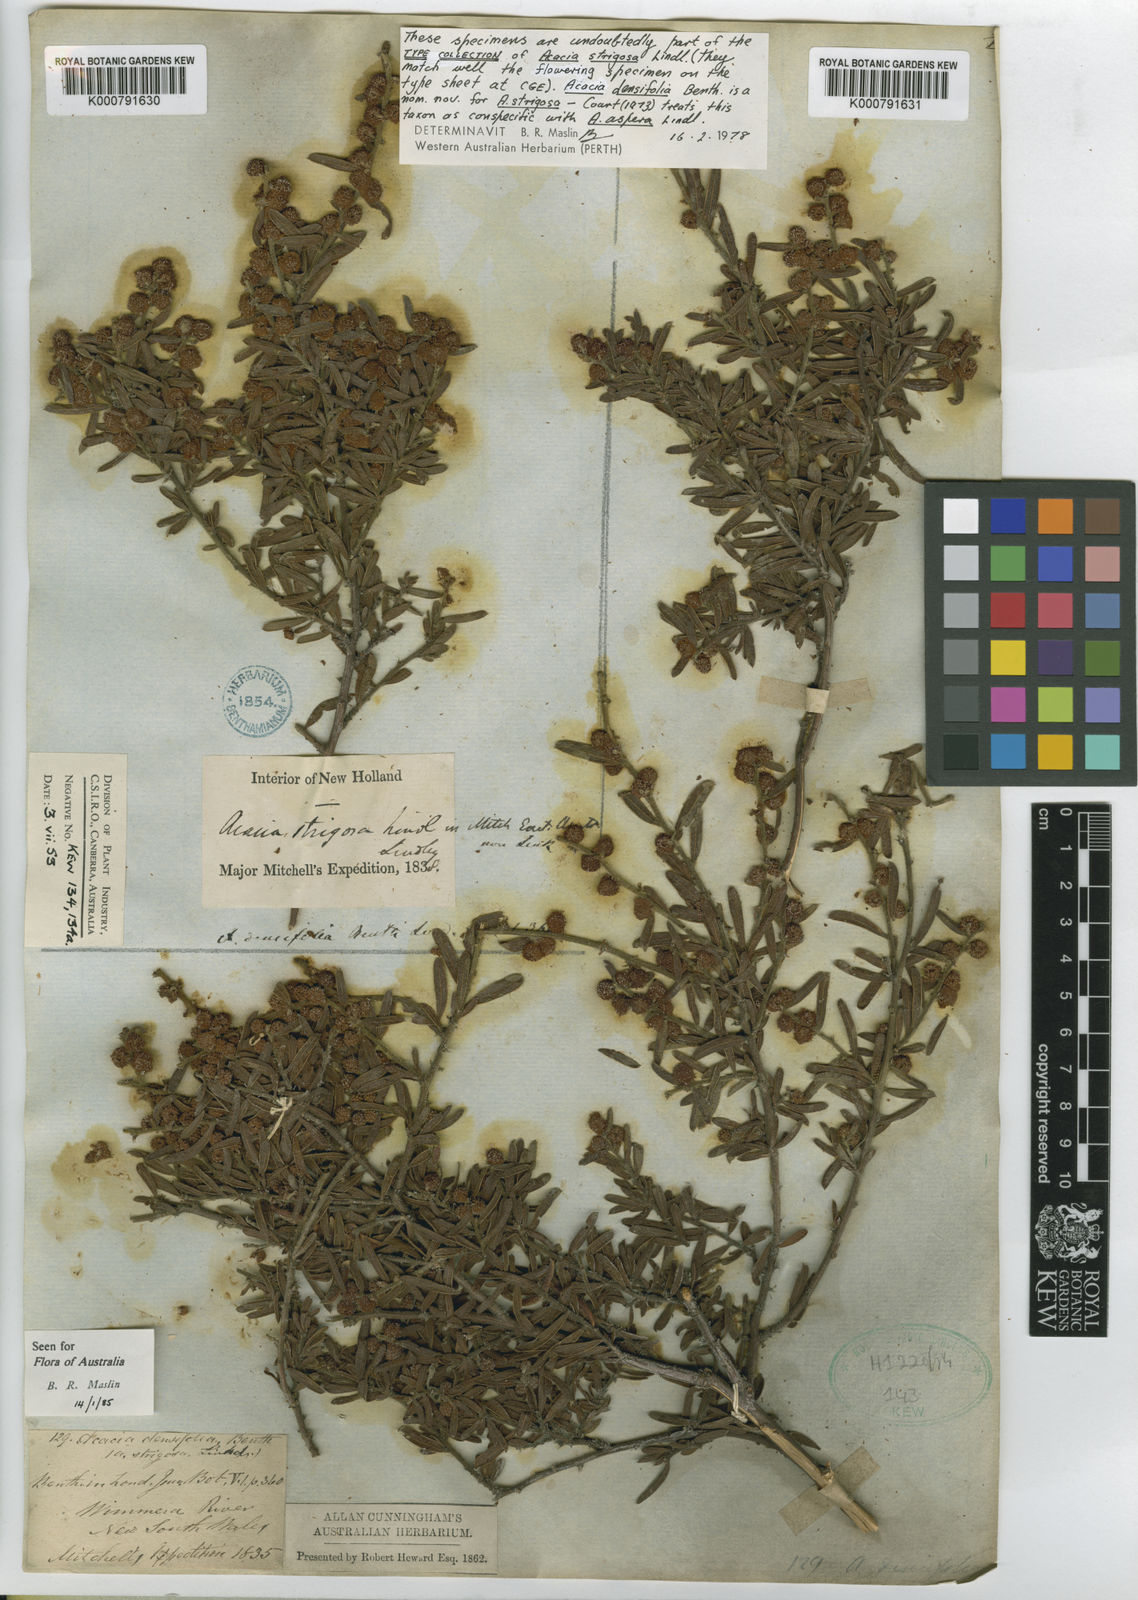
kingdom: Plantae
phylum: Tracheophyta
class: Magnoliopsida
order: Fabales
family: Fabaceae
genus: Acacia
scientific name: Acacia aspera
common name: Rough wattle
